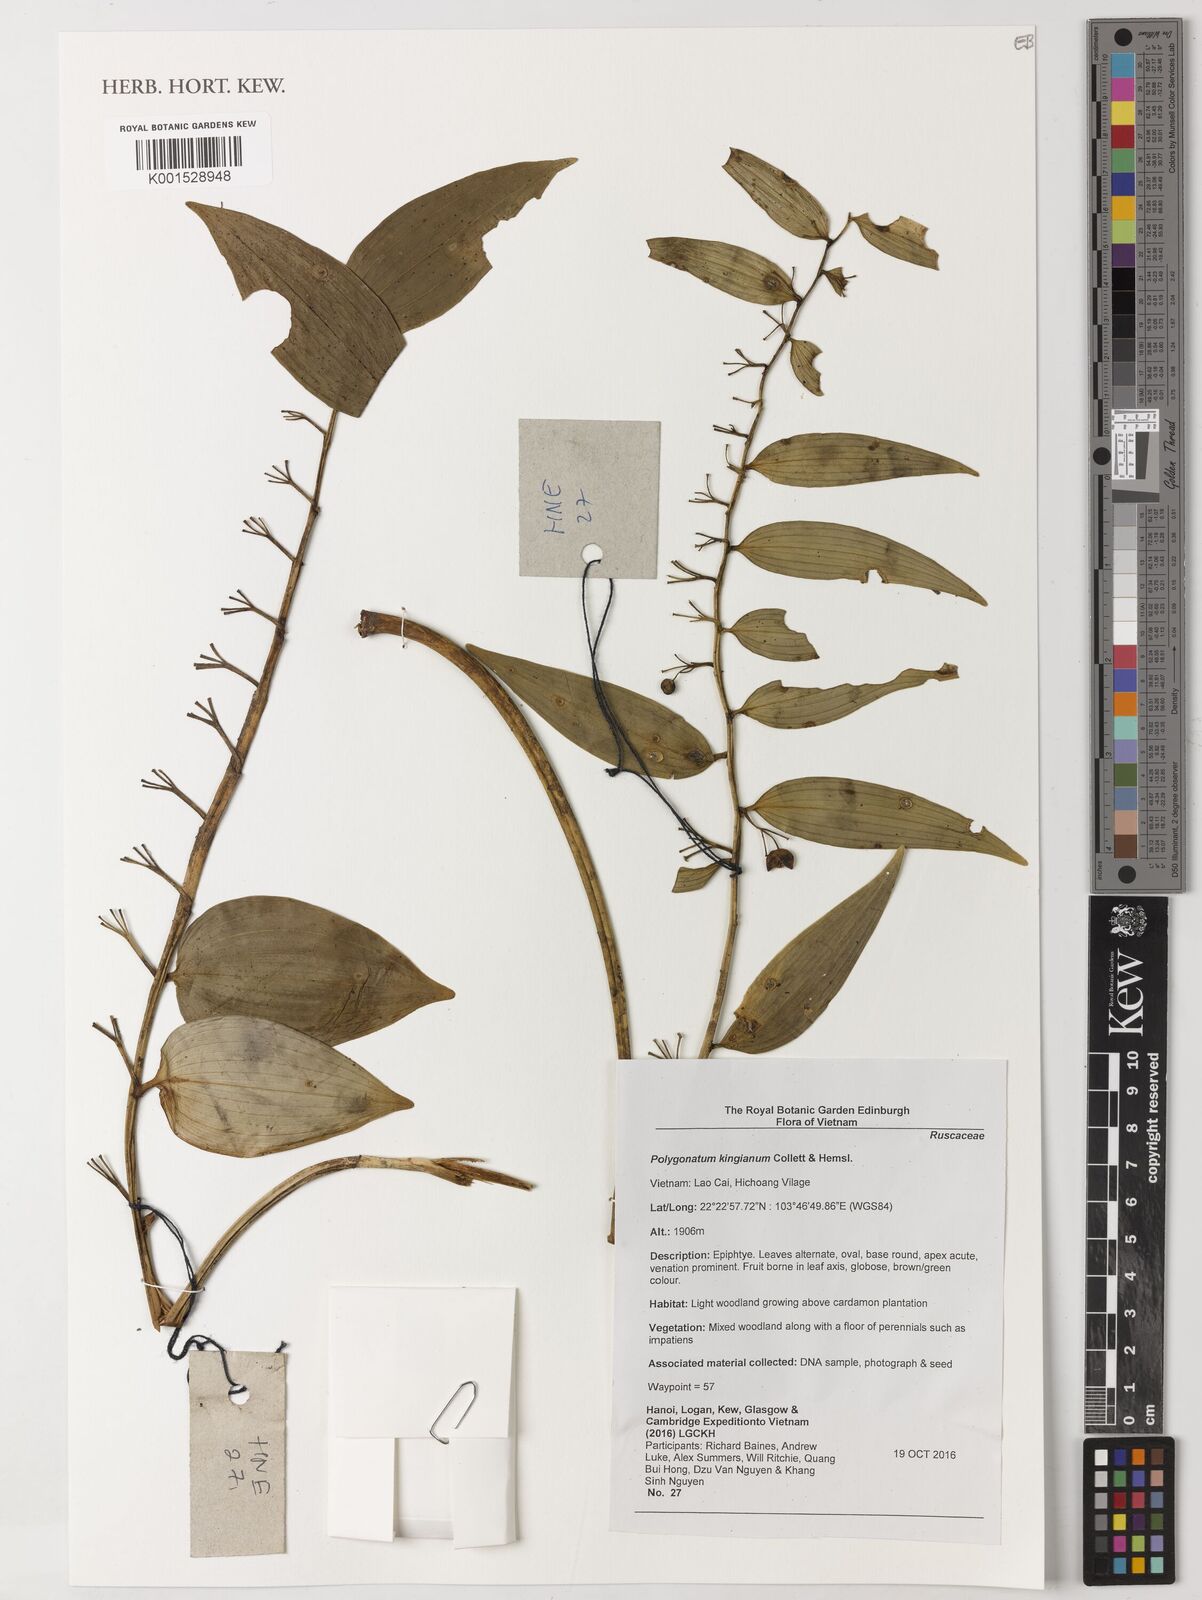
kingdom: Plantae
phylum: Tracheophyta
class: Liliopsida
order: Asparagales
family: Asparagaceae
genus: Polygonatum
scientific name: Polygonatum kingianum
